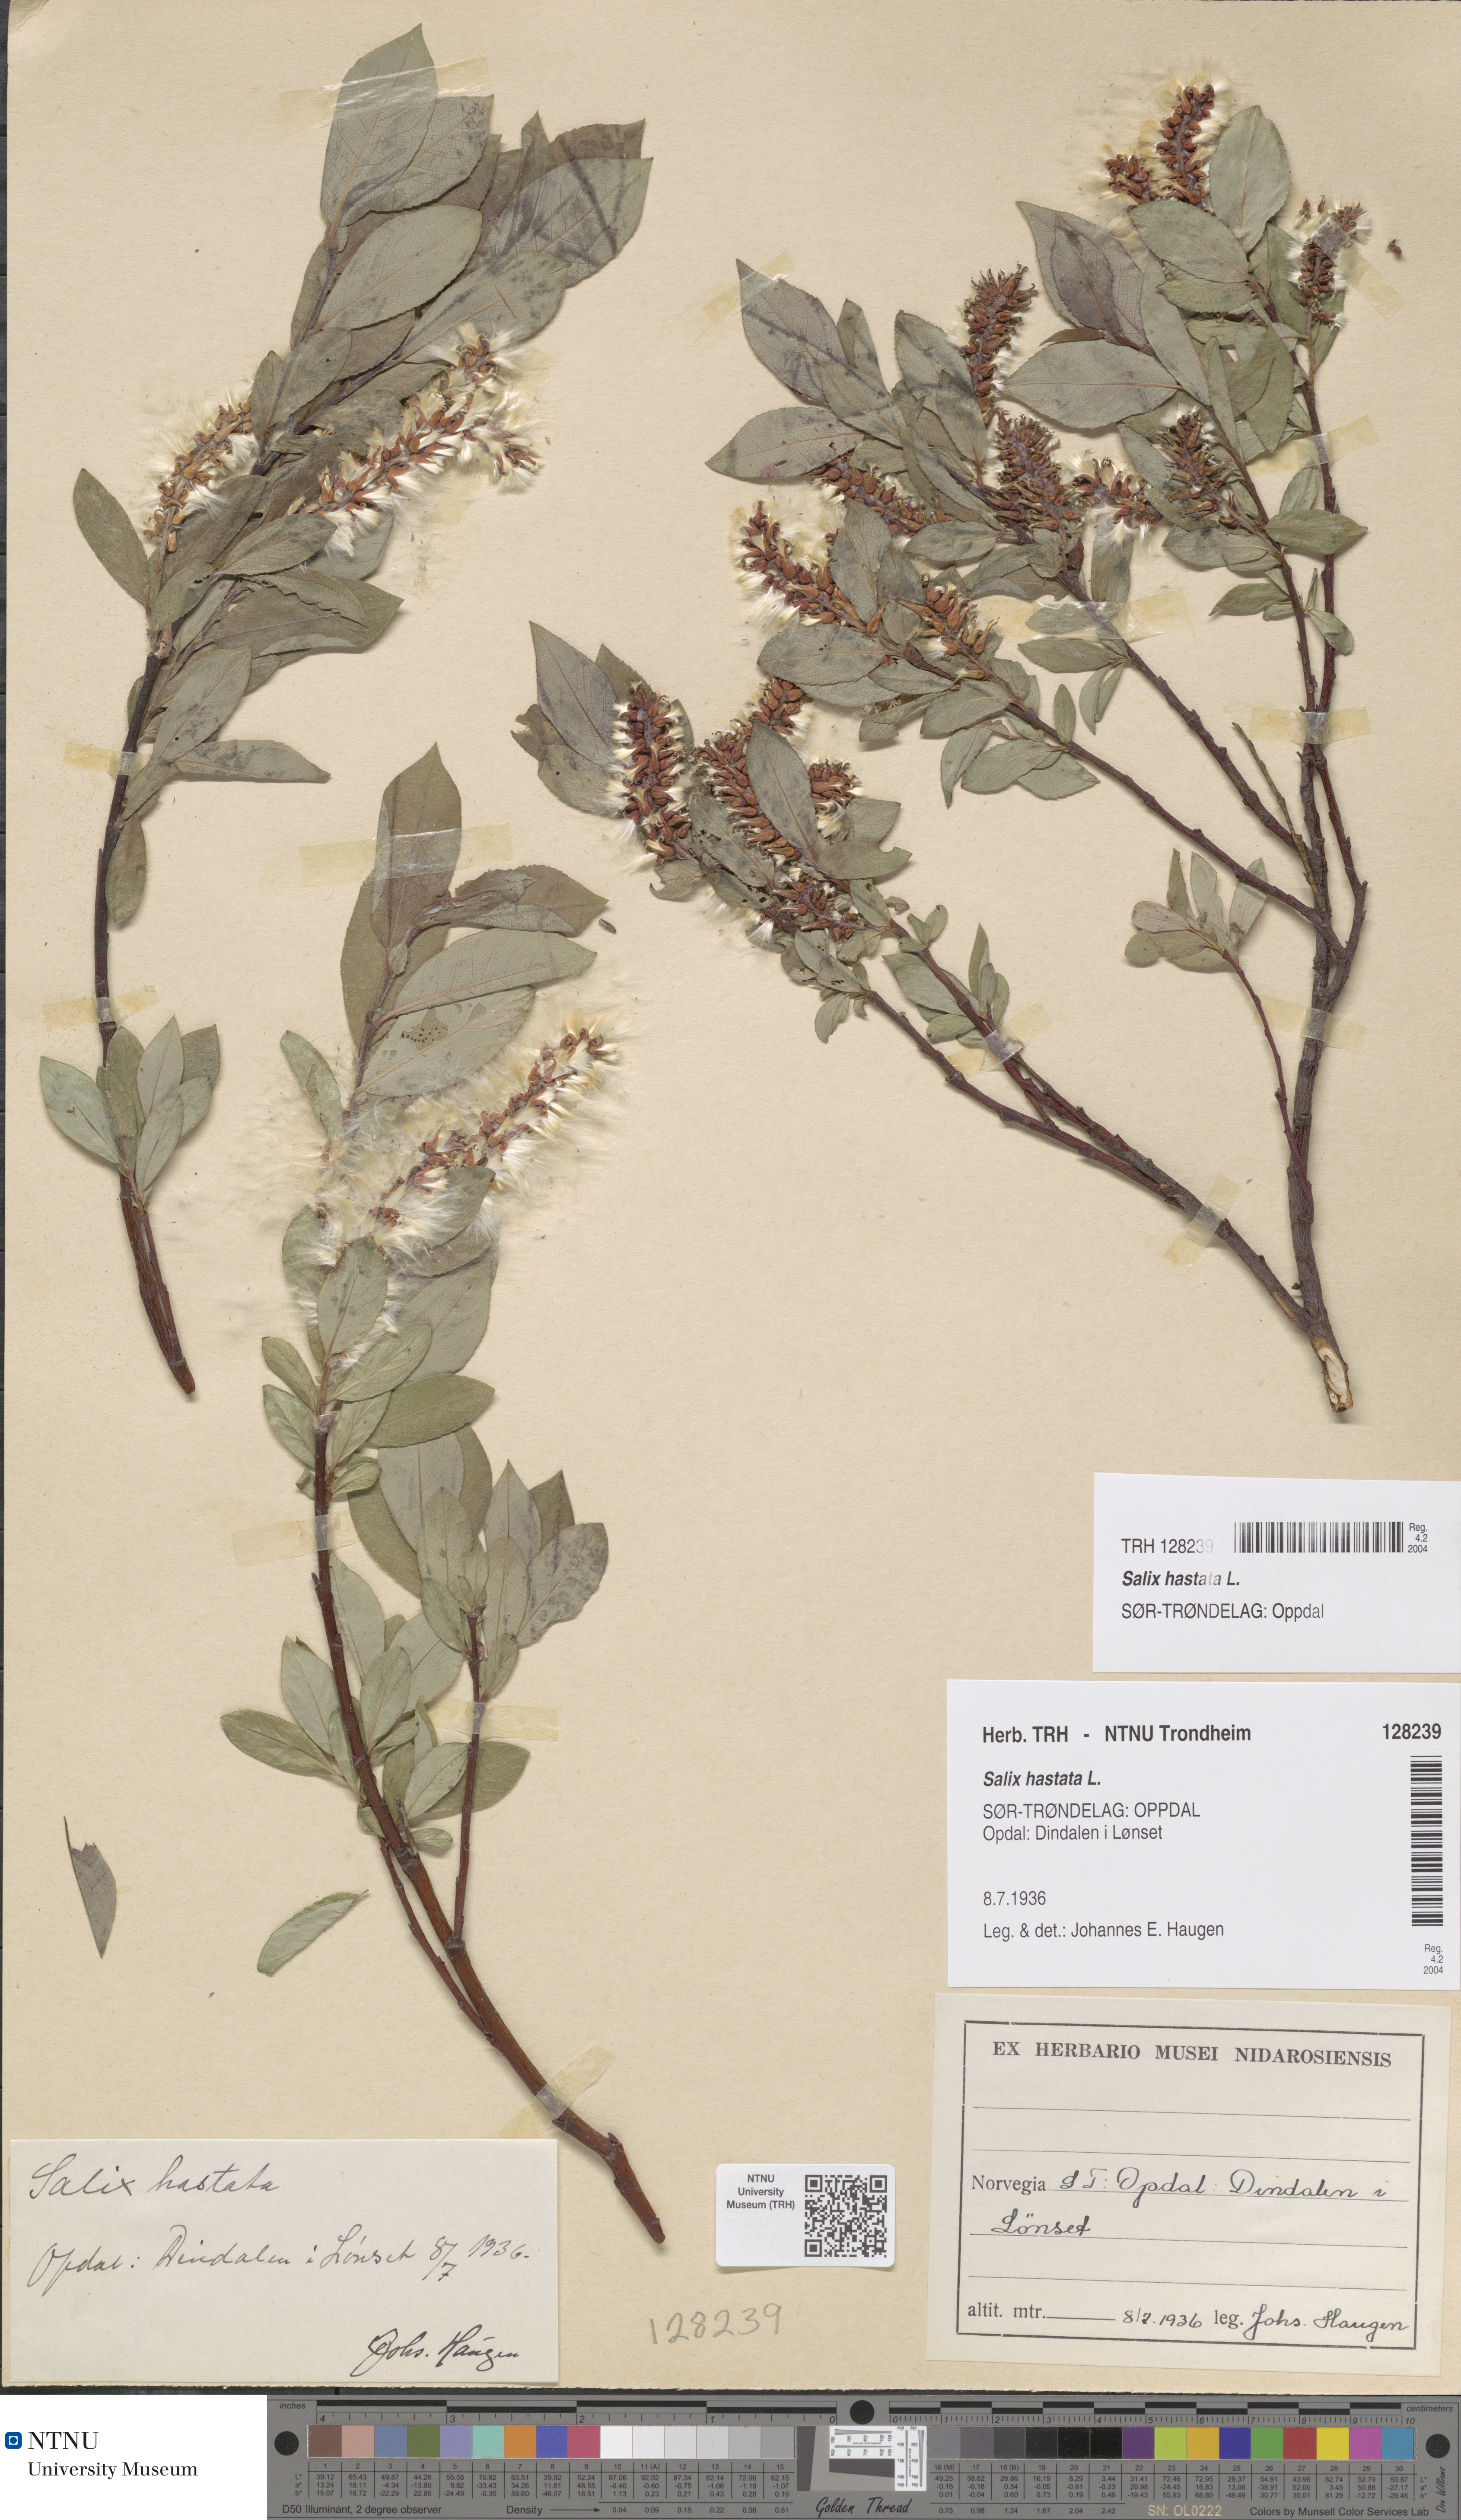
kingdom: Plantae
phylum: Tracheophyta
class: Magnoliopsida
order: Malpighiales
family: Salicaceae
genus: Salix
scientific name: Salix hastata
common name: Halberd willow
